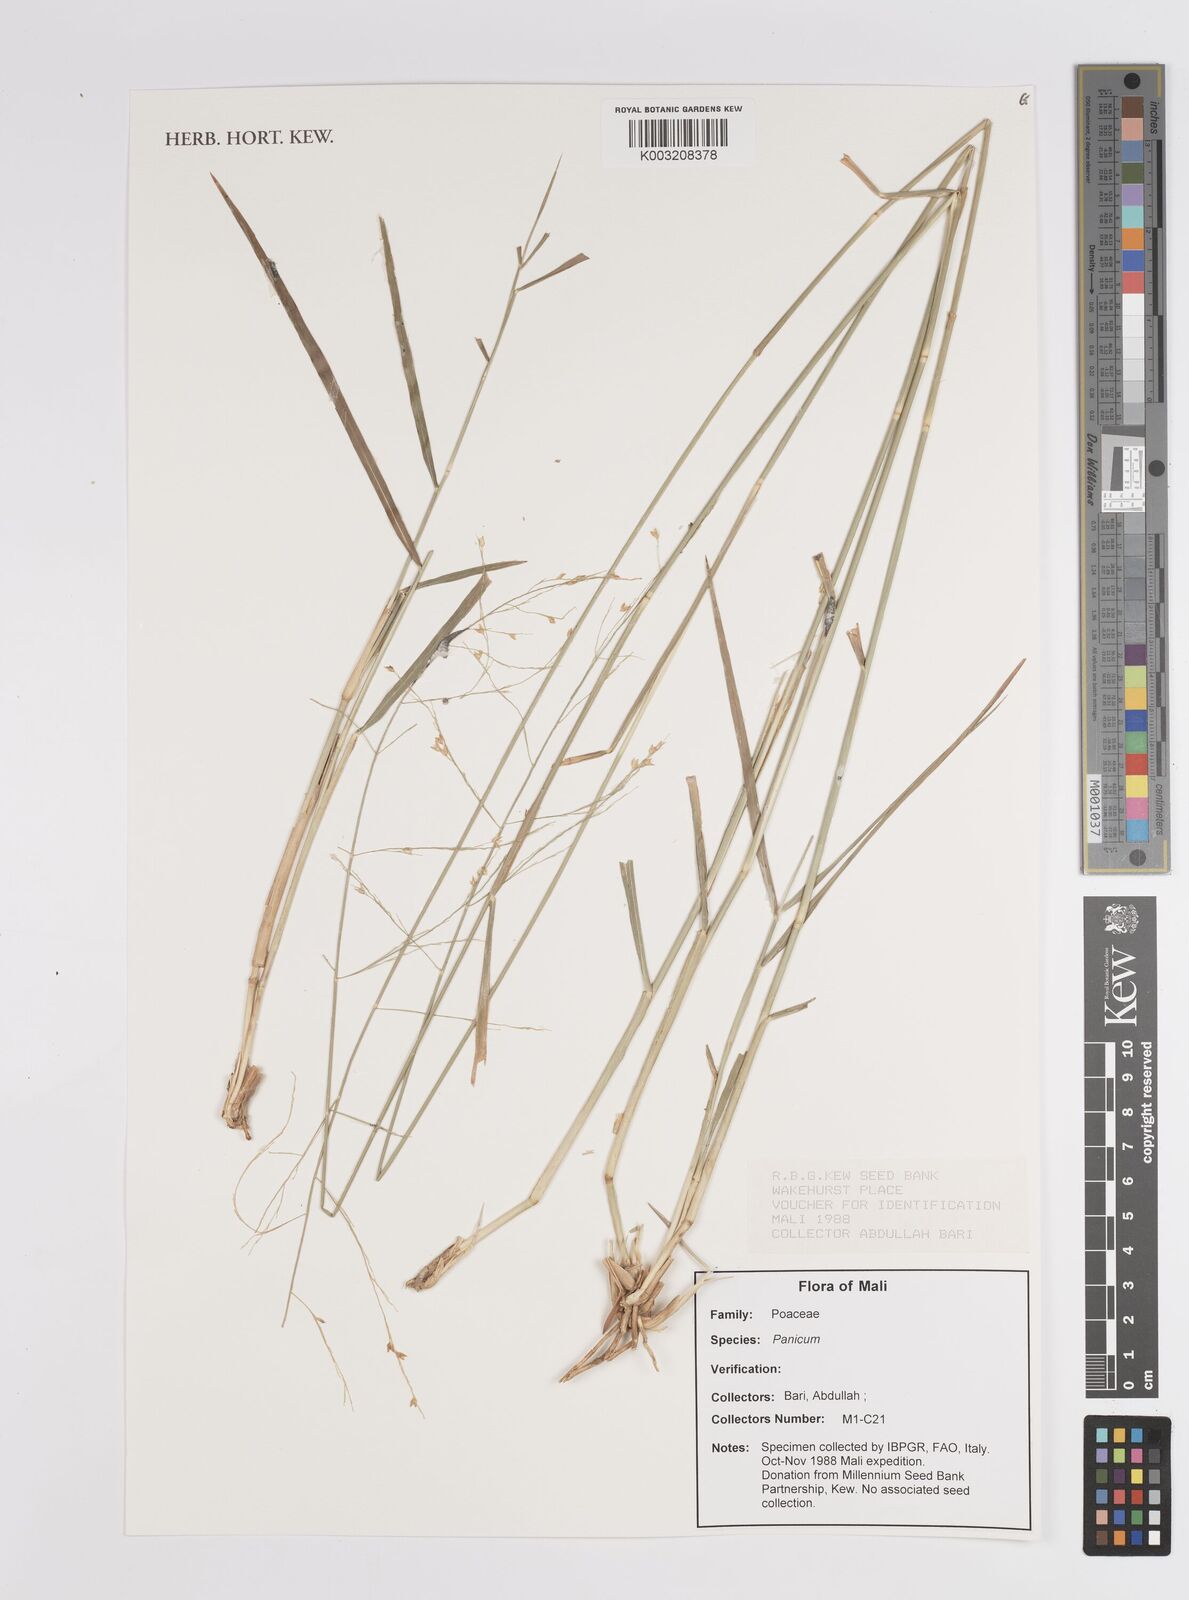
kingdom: Plantae
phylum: Tracheophyta
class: Liliopsida
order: Poales
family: Poaceae
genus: Panicum
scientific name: Panicum
